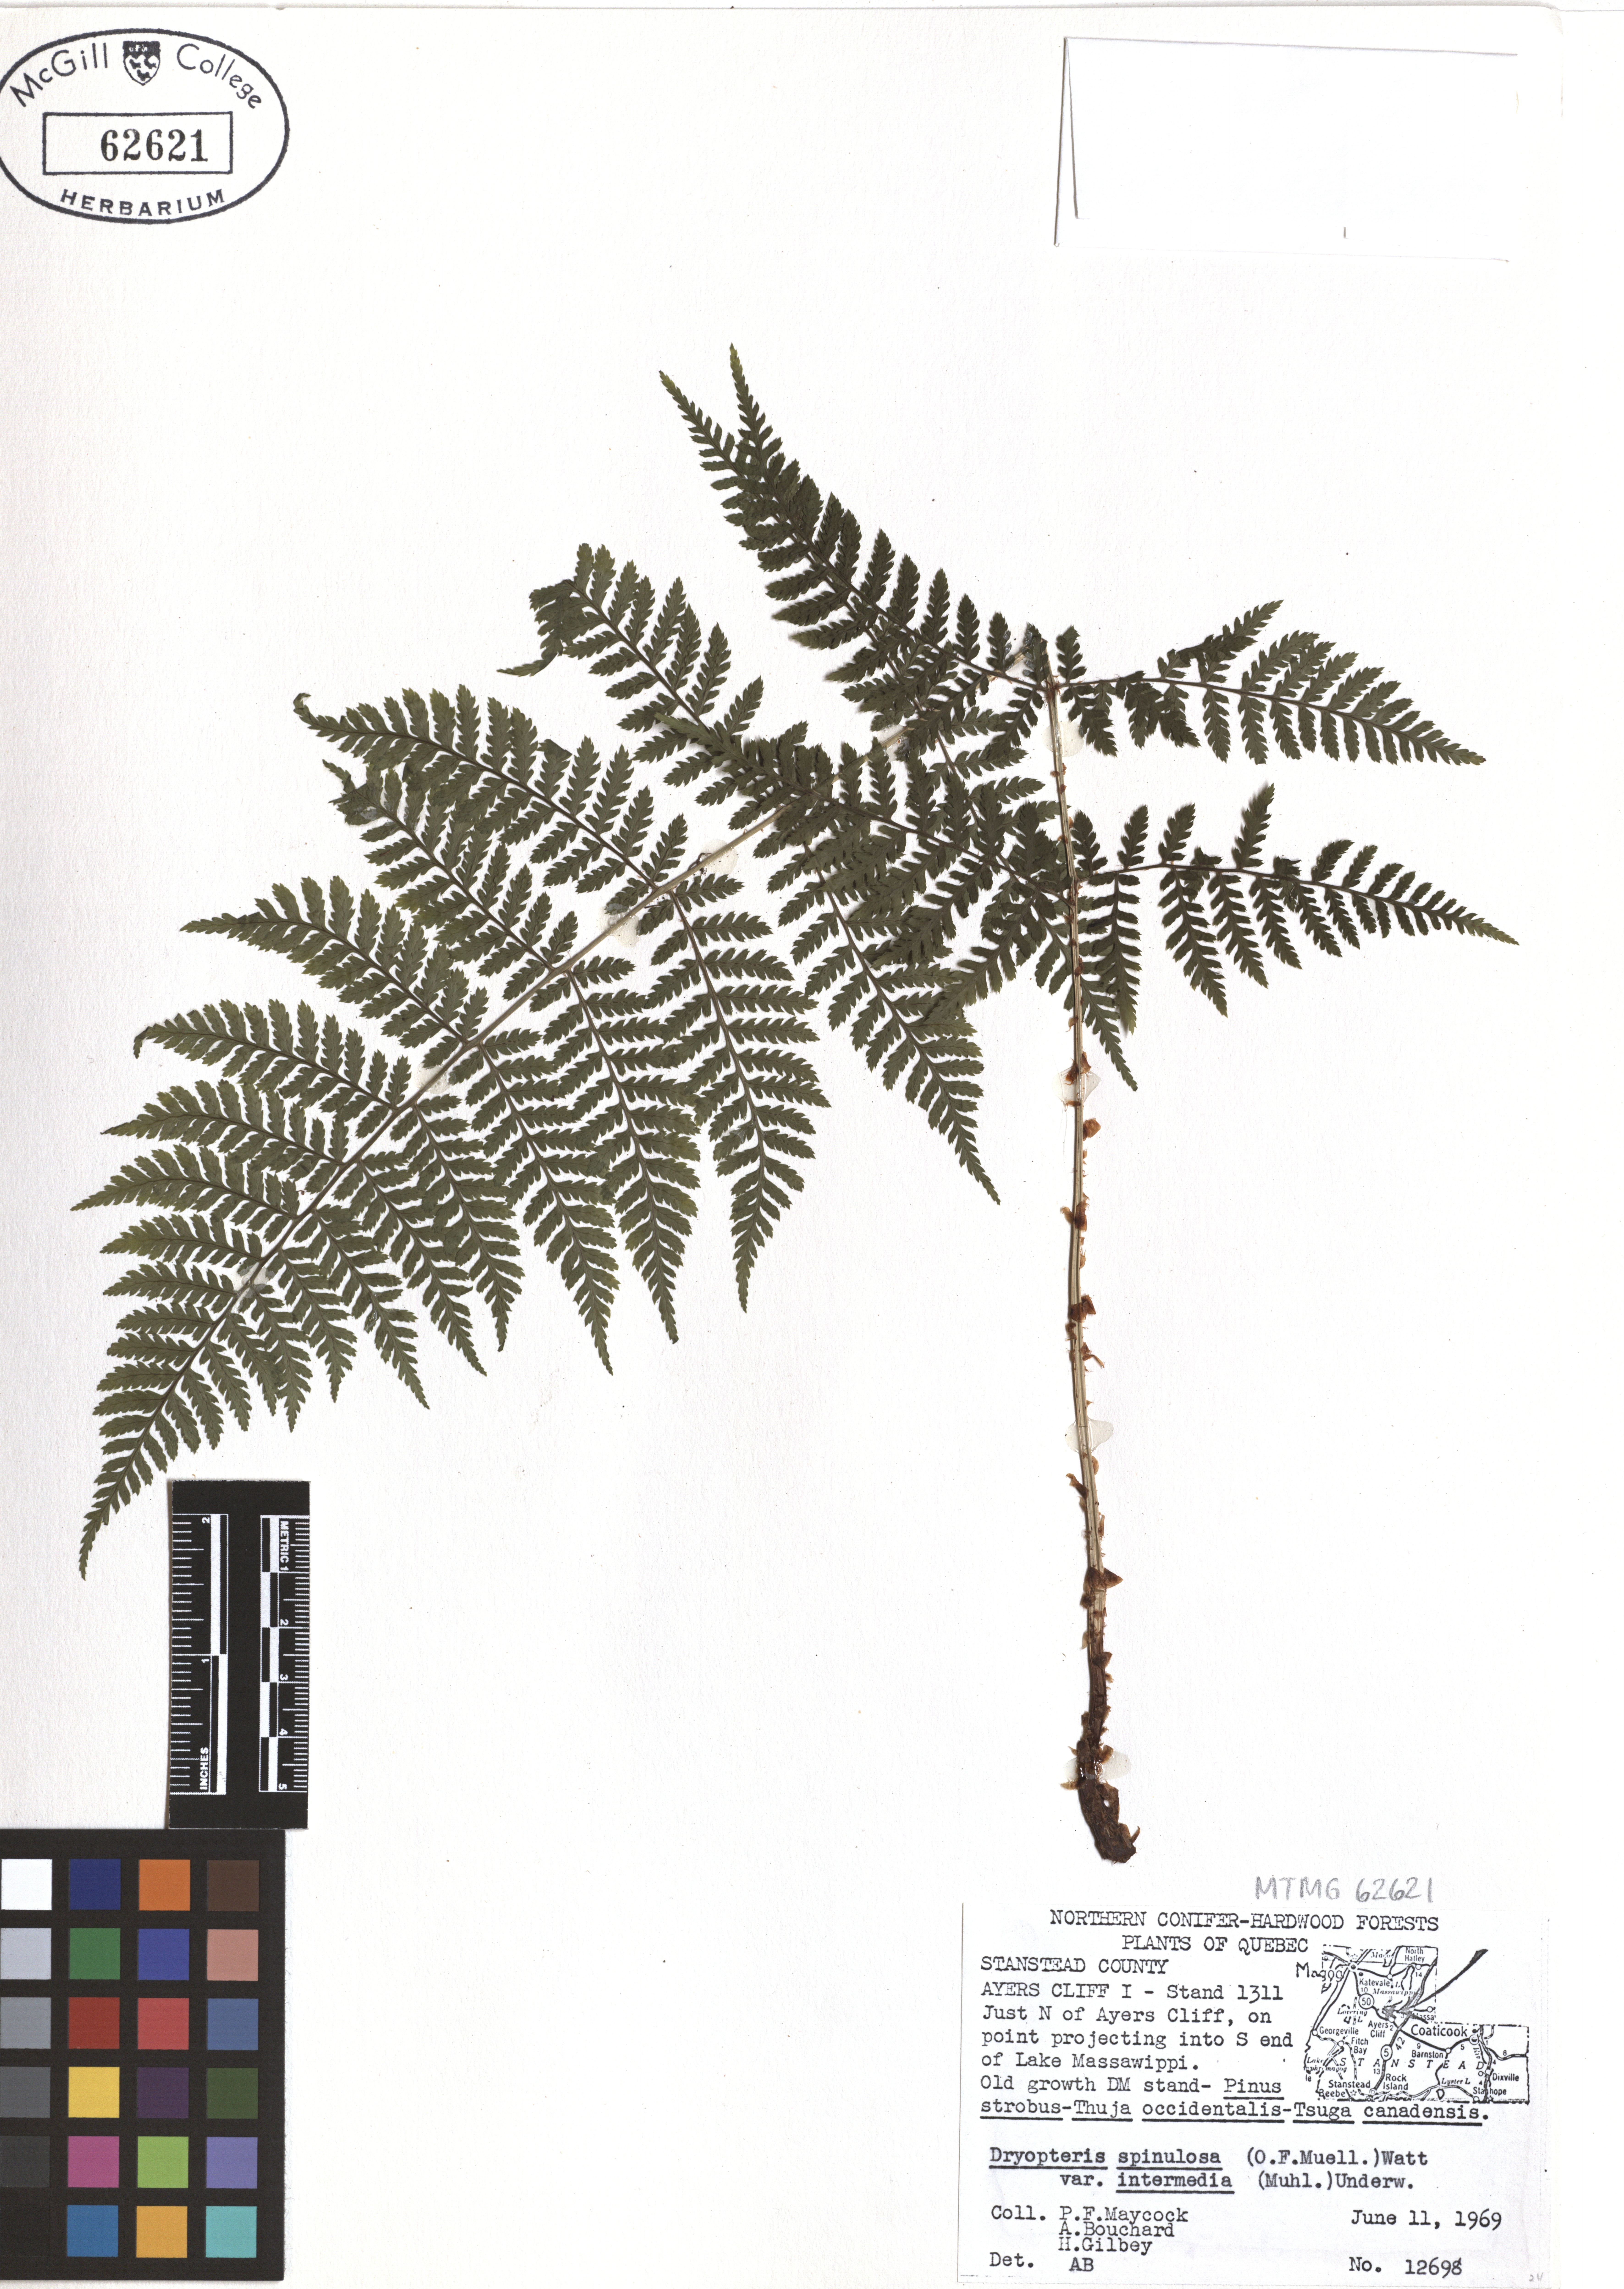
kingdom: Plantae
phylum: Tracheophyta
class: Polypodiopsida
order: Polypodiales
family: Dryopteridaceae
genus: Dryopteris
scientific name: Dryopteris intermedia
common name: Evergreen wood fern
